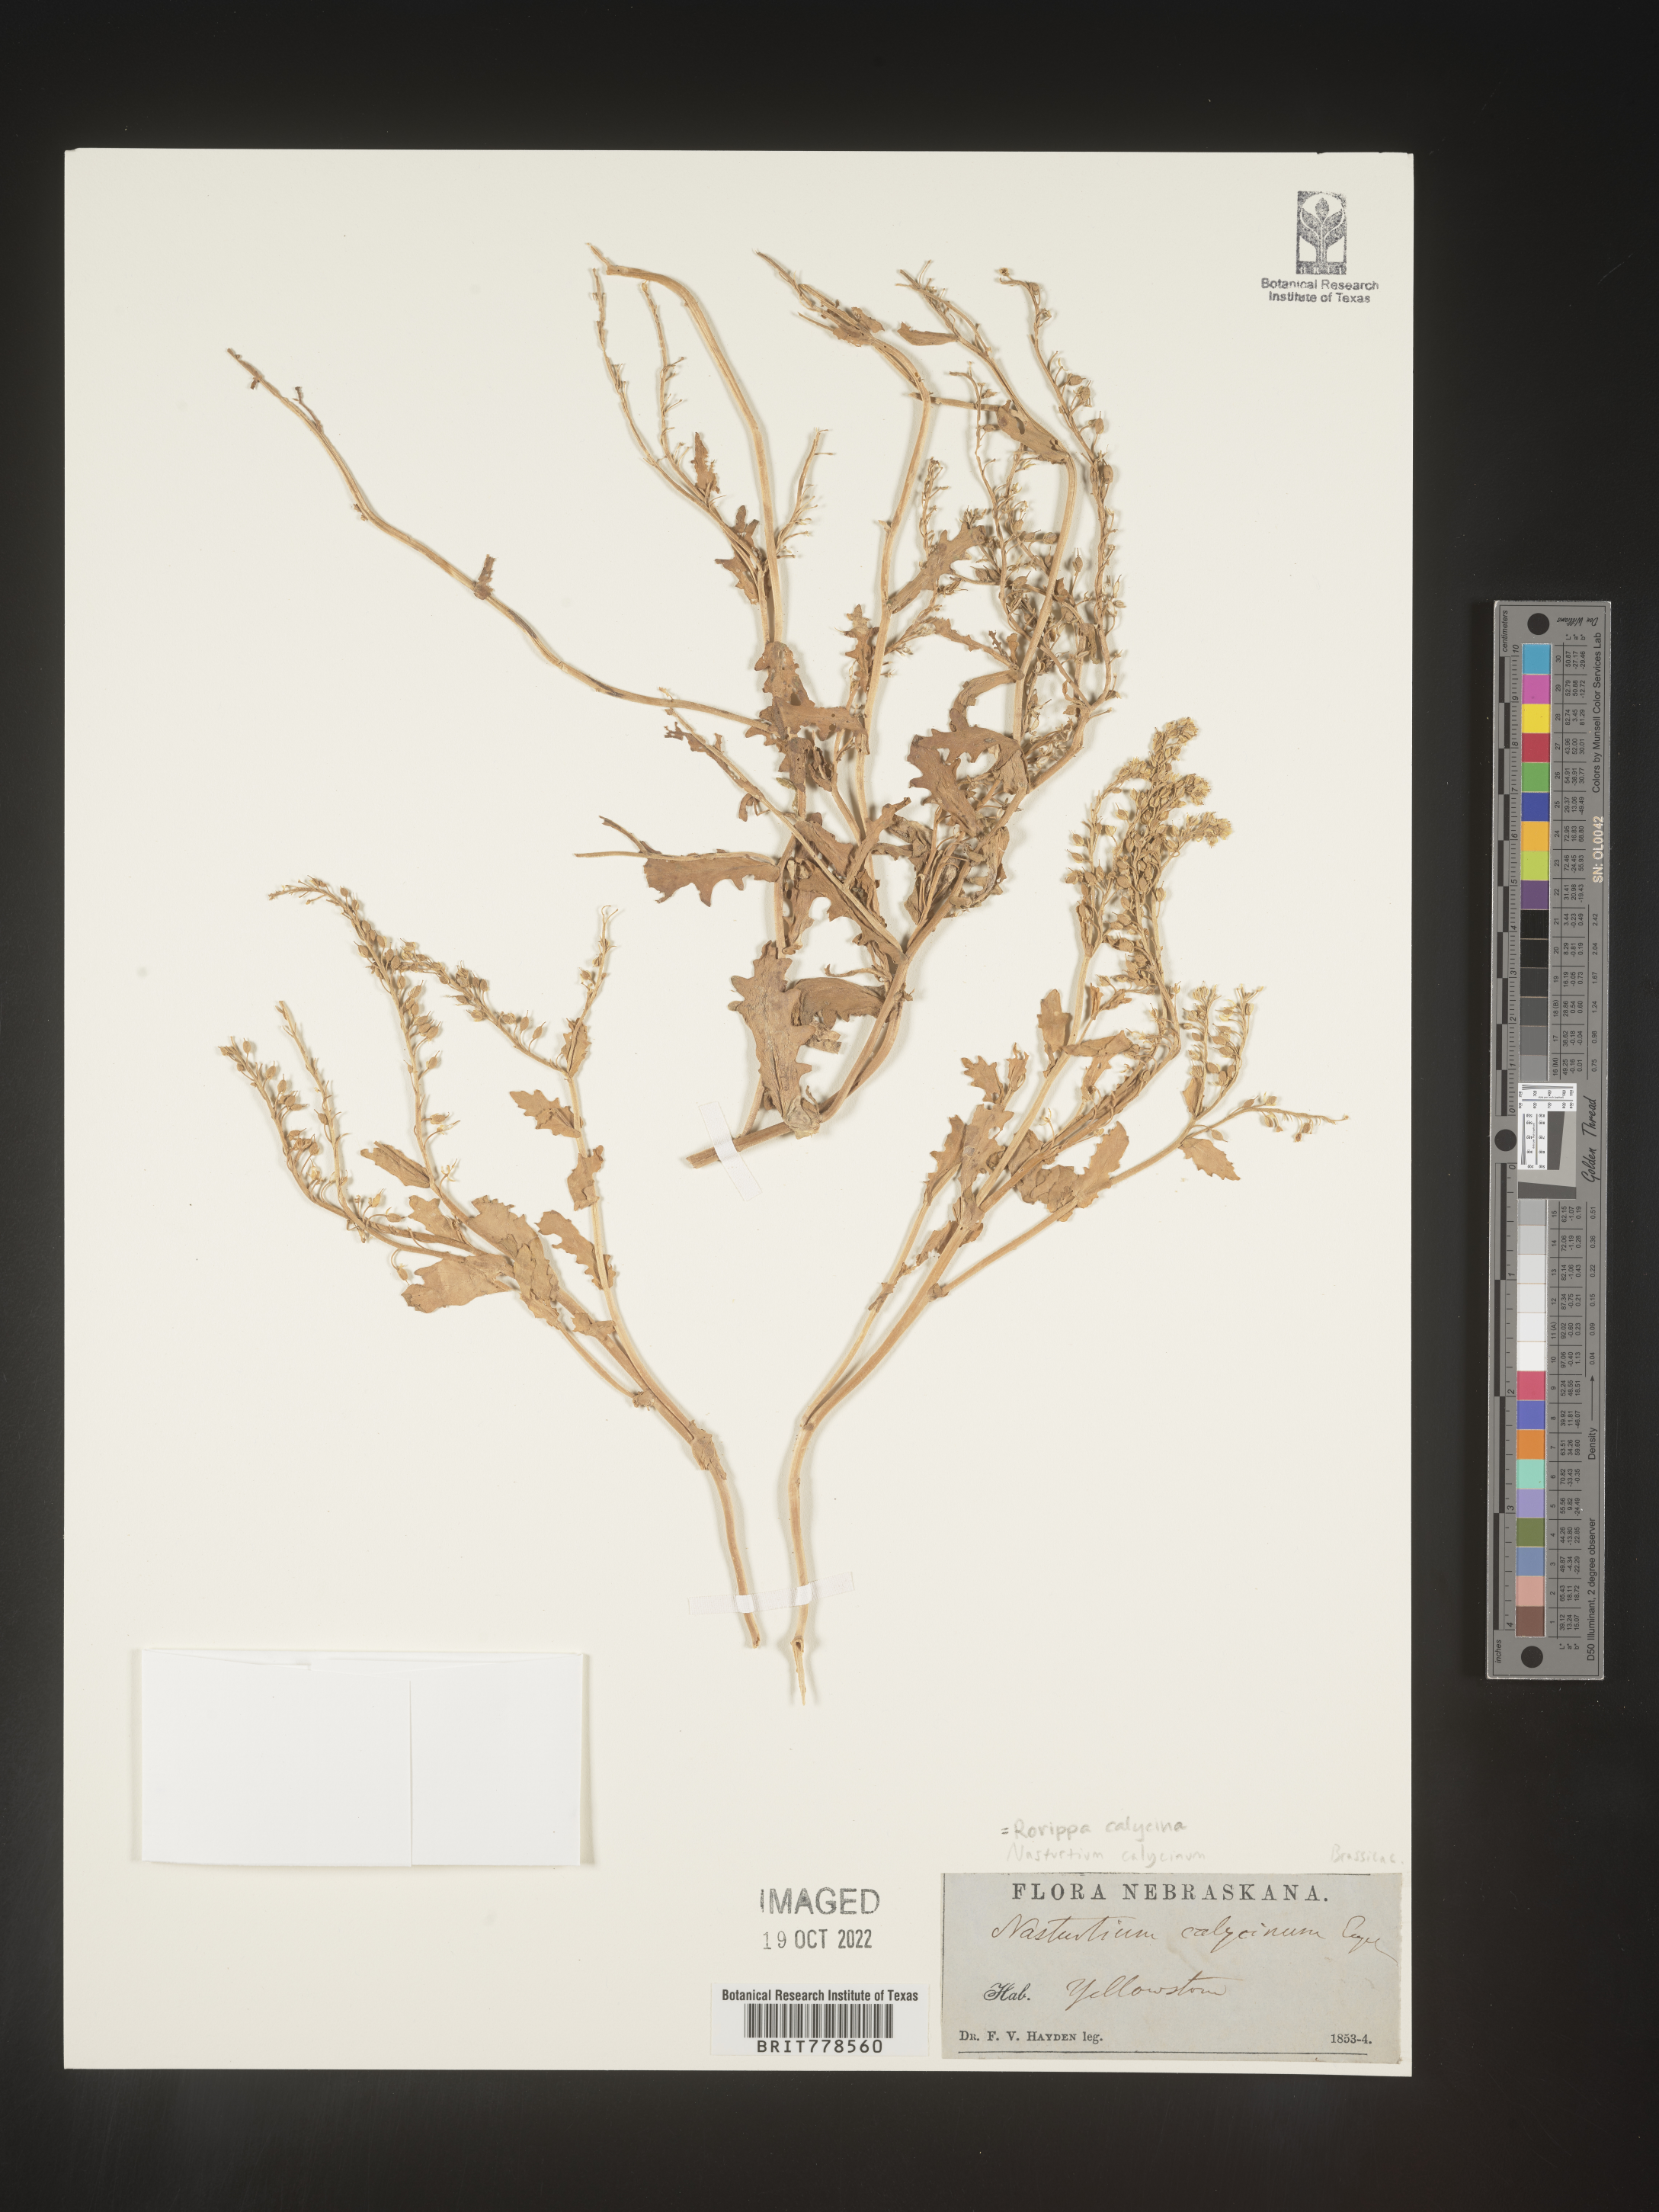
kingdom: Plantae
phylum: Tracheophyta
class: Magnoliopsida
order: Brassicales
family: Brassicaceae
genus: Rorippa
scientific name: Rorippa
